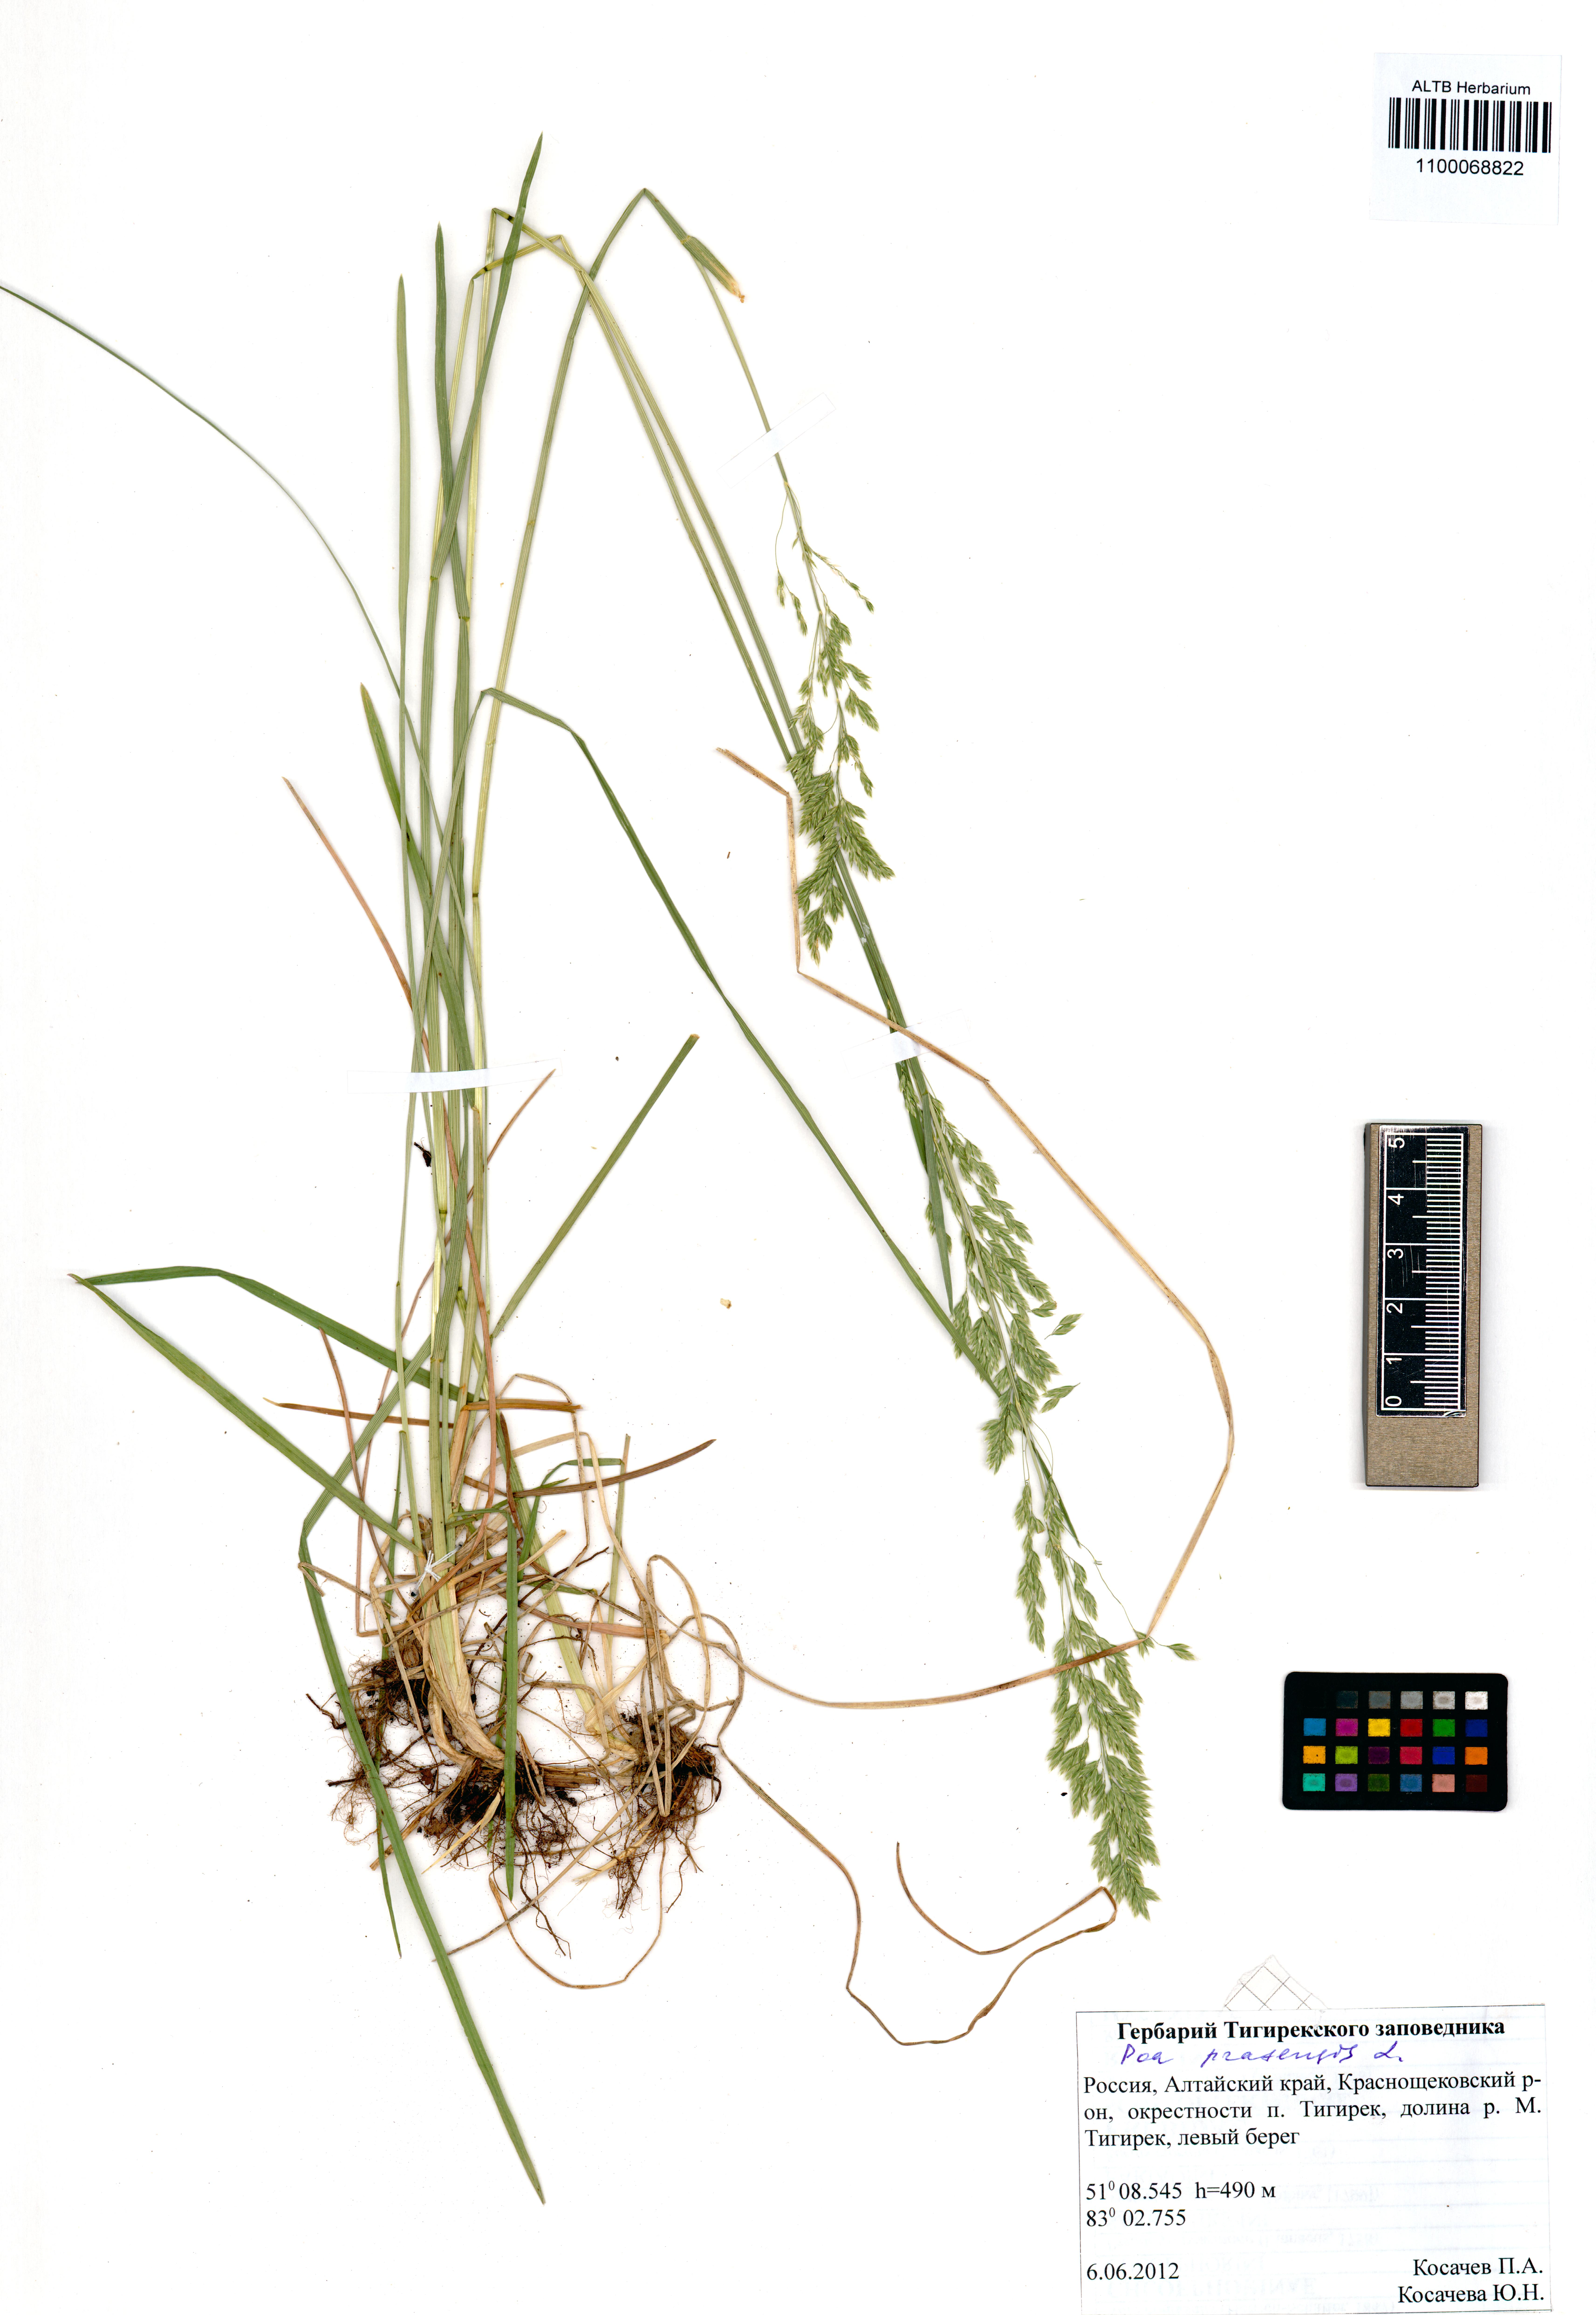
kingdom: Plantae
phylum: Tracheophyta
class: Liliopsida
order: Poales
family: Poaceae
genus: Poa
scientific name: Poa pratensis
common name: Kentucky bluegrass
